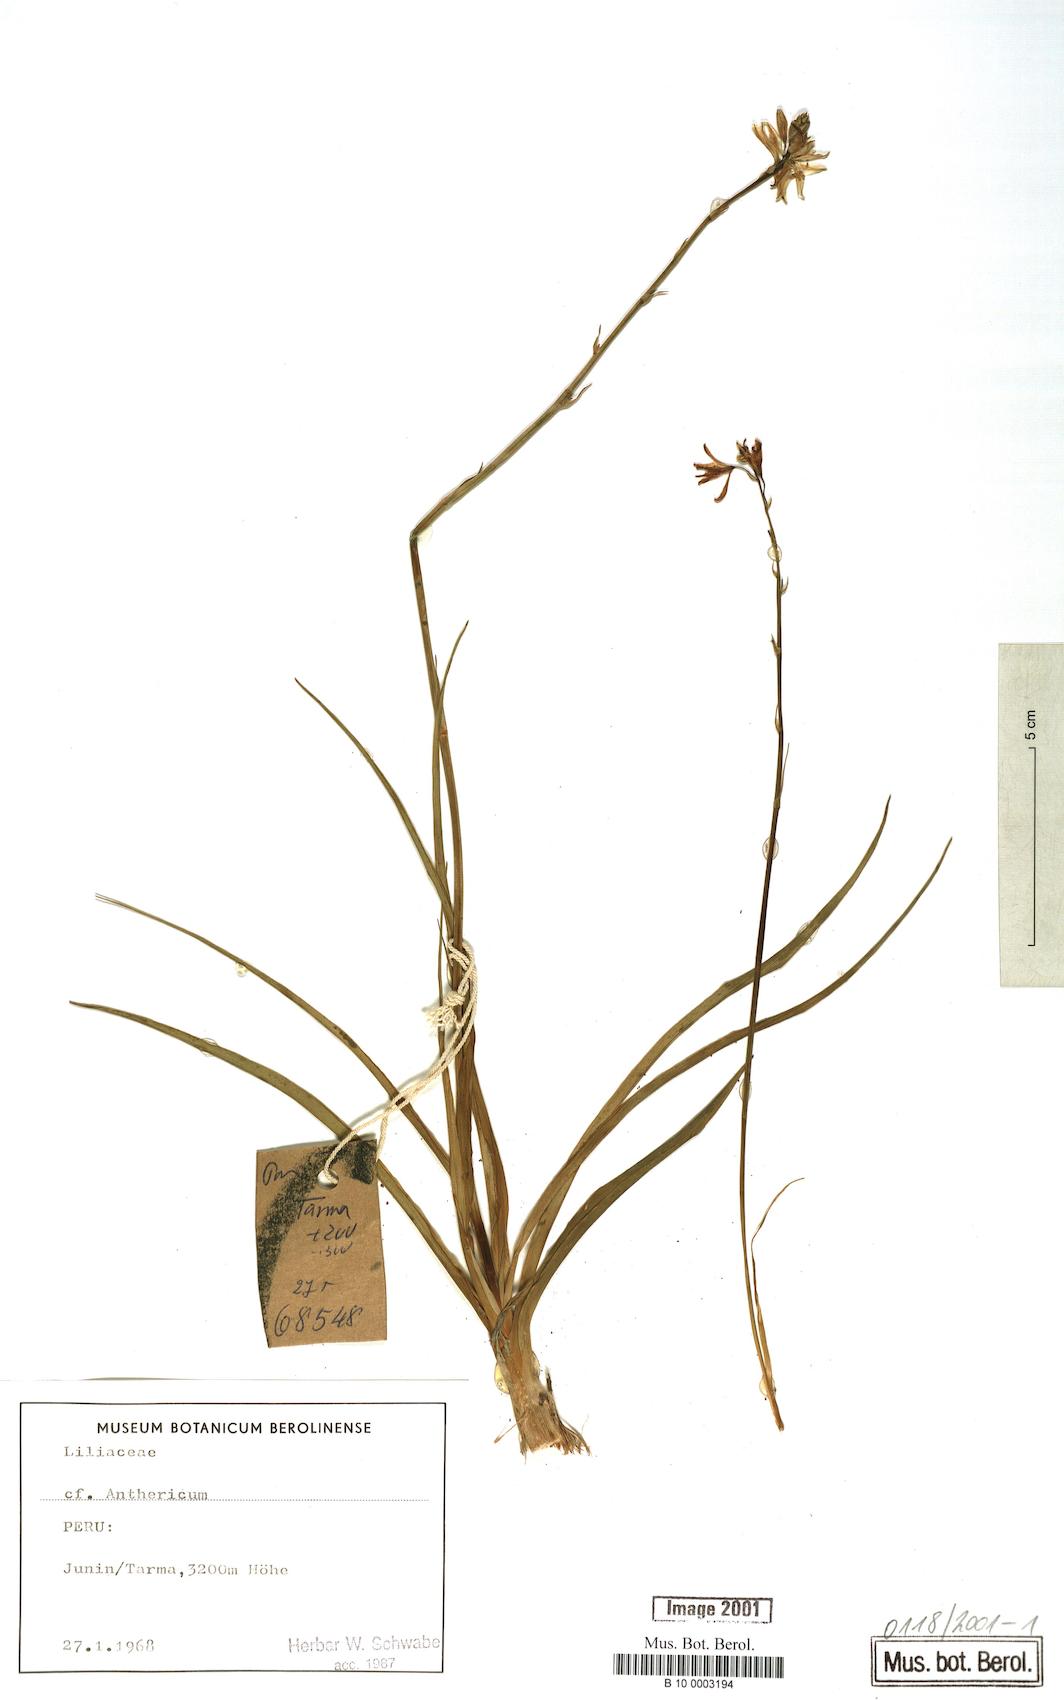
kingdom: Plantae
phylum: Tracheophyta
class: Liliopsida
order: Asparagales
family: Asparagaceae
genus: Anthericum
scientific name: Anthericum
